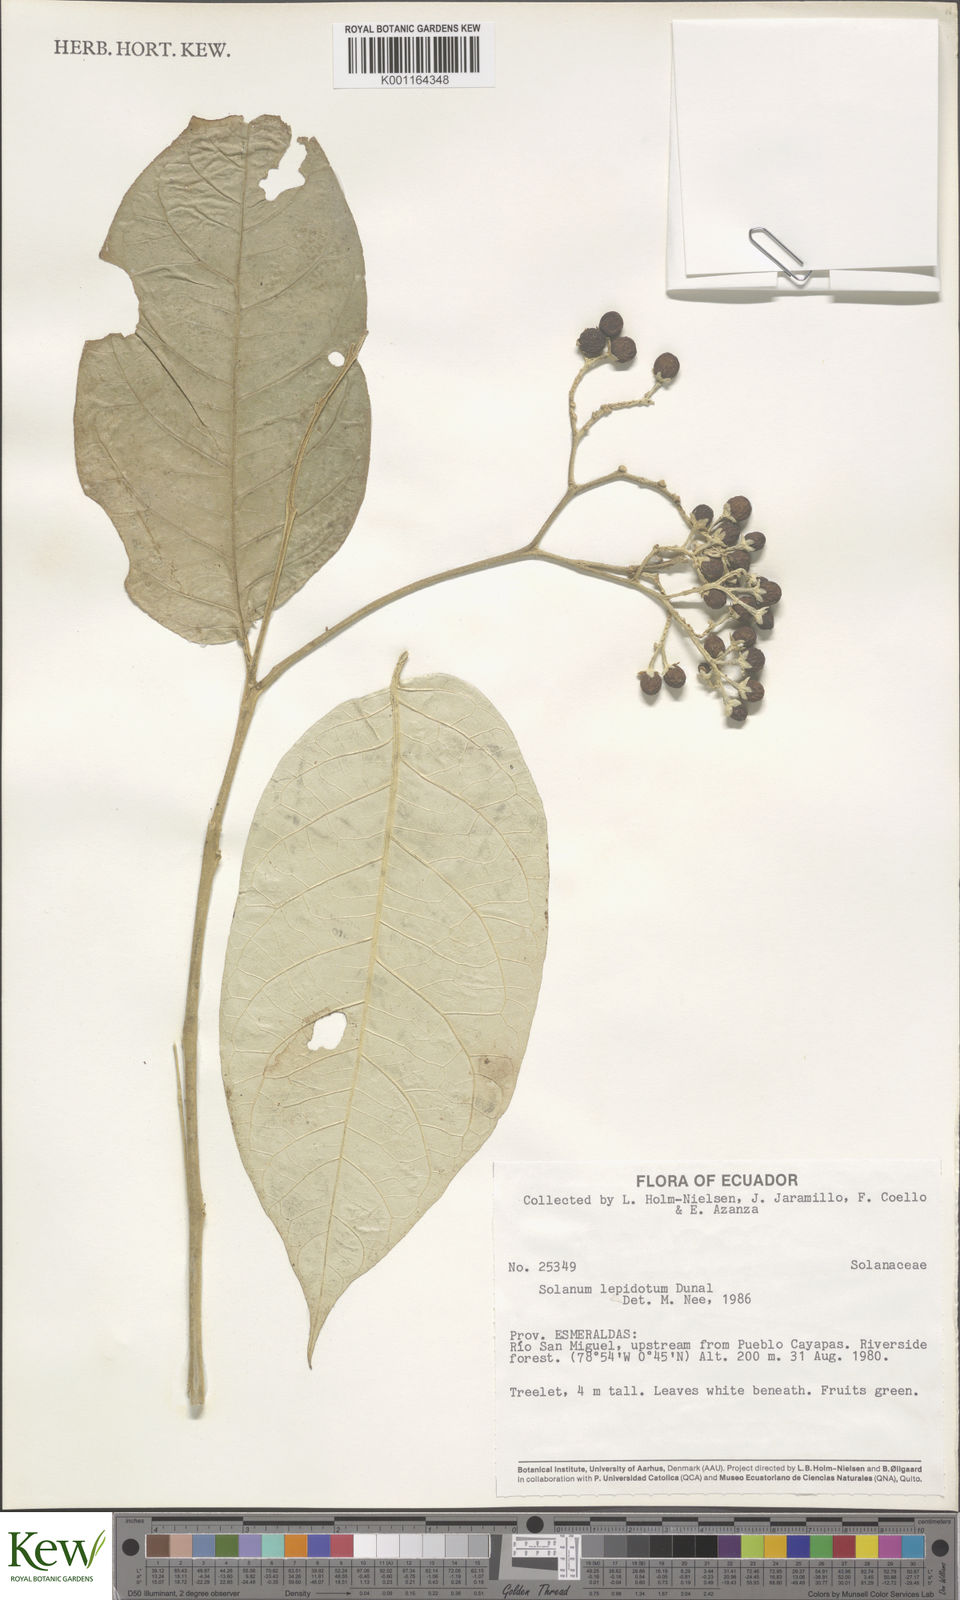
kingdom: Plantae
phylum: Tracheophyta
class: Magnoliopsida
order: Solanales
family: Solanaceae
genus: Solanum
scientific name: Solanum lepidotum
